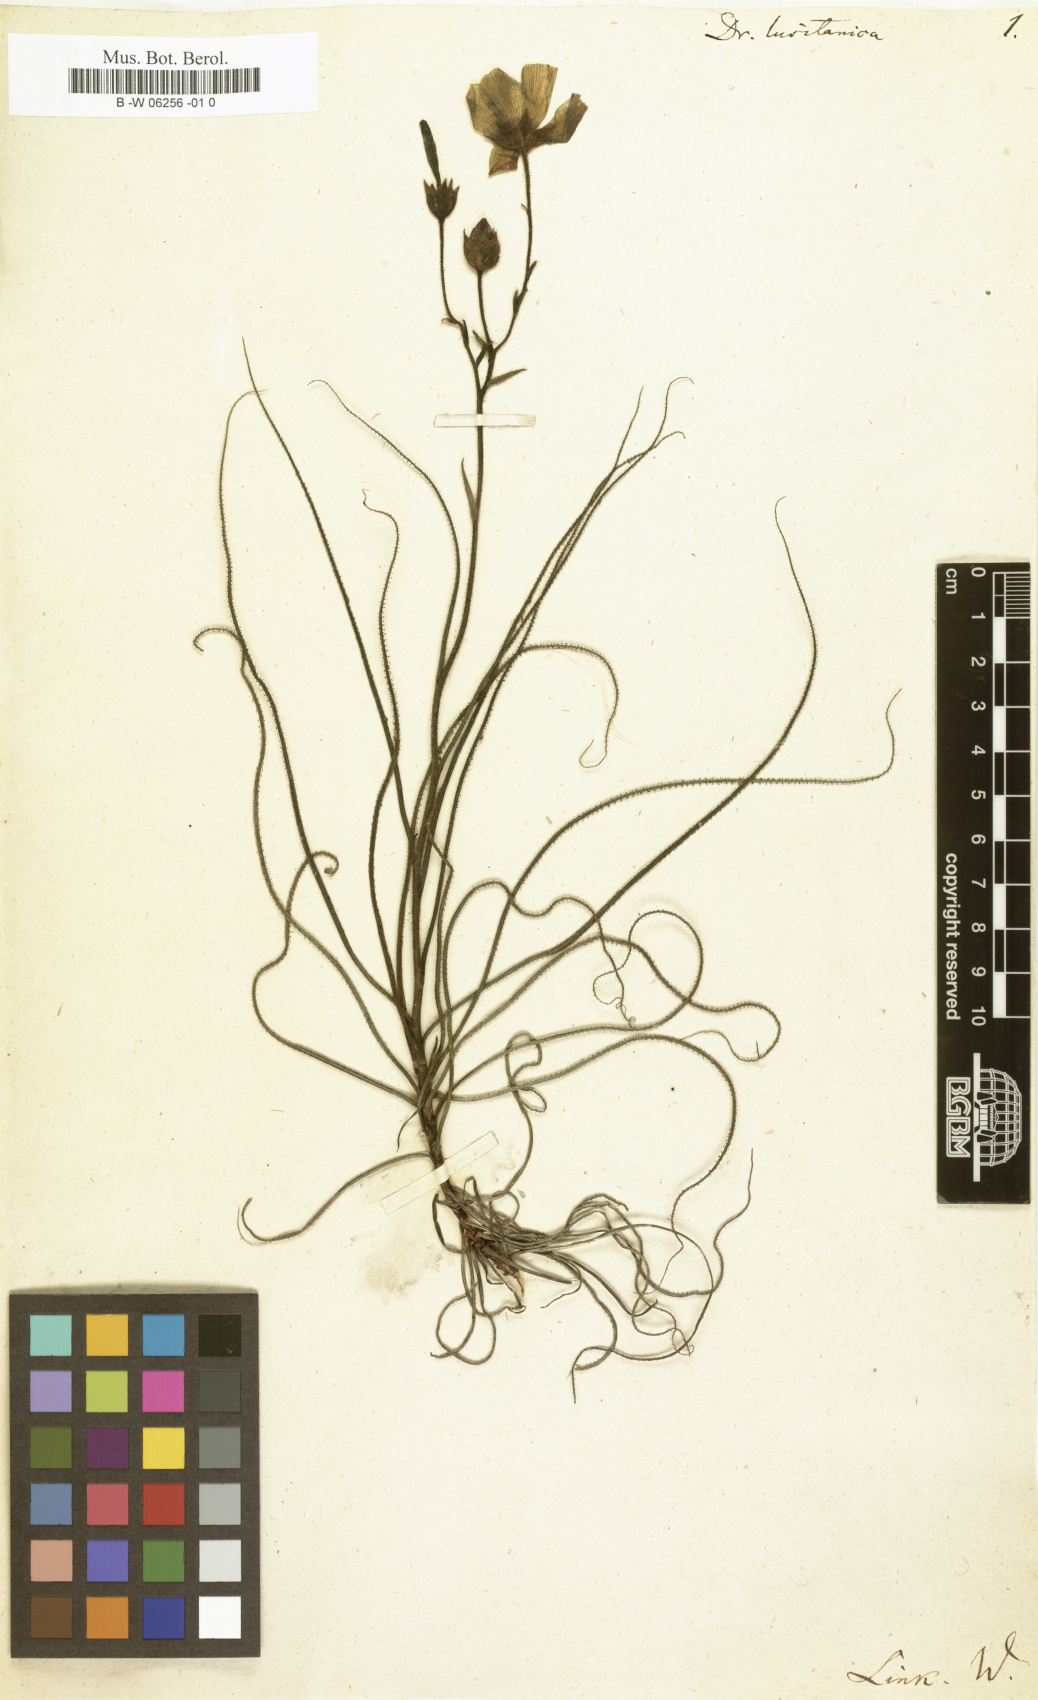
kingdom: Plantae
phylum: Tracheophyta
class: Magnoliopsida
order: Caryophyllales
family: Drosophyllaceae
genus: Drosophyllum
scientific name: Drosophyllum lusitanicum
